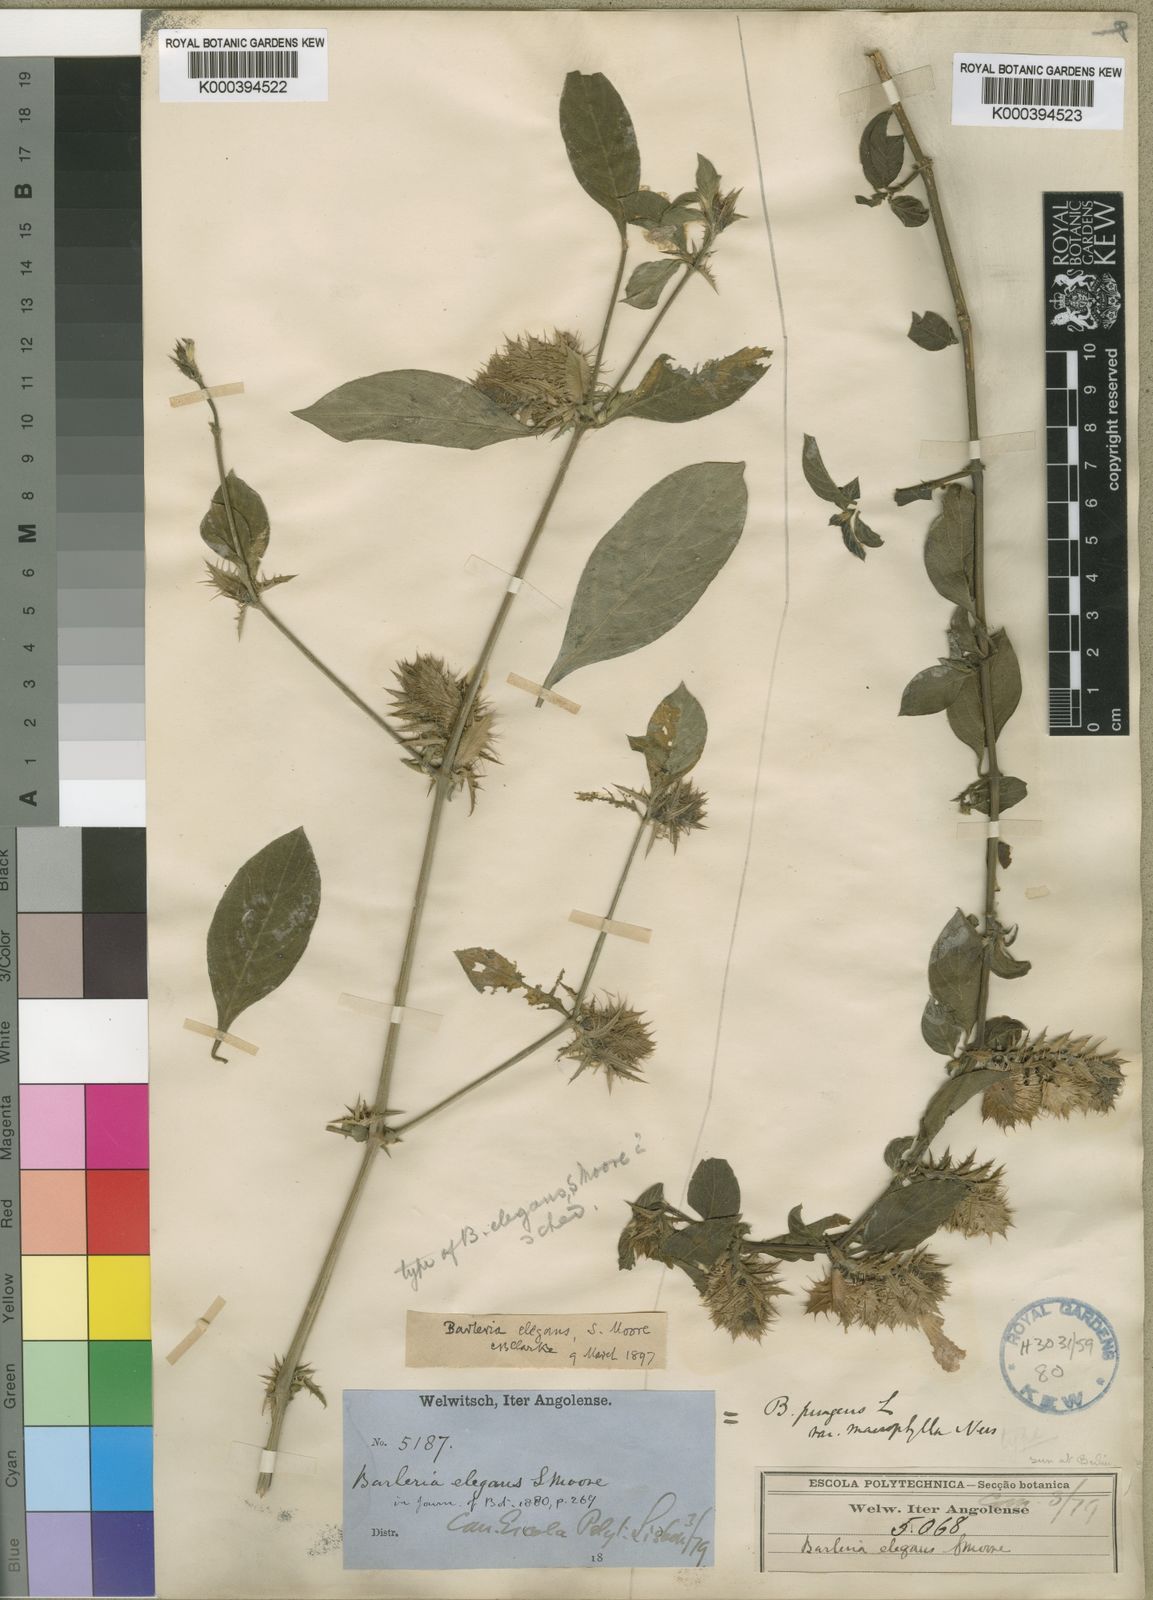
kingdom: Plantae
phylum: Tracheophyta
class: Magnoliopsida
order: Lamiales
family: Acanthaceae
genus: Barleria
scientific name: Barleria
